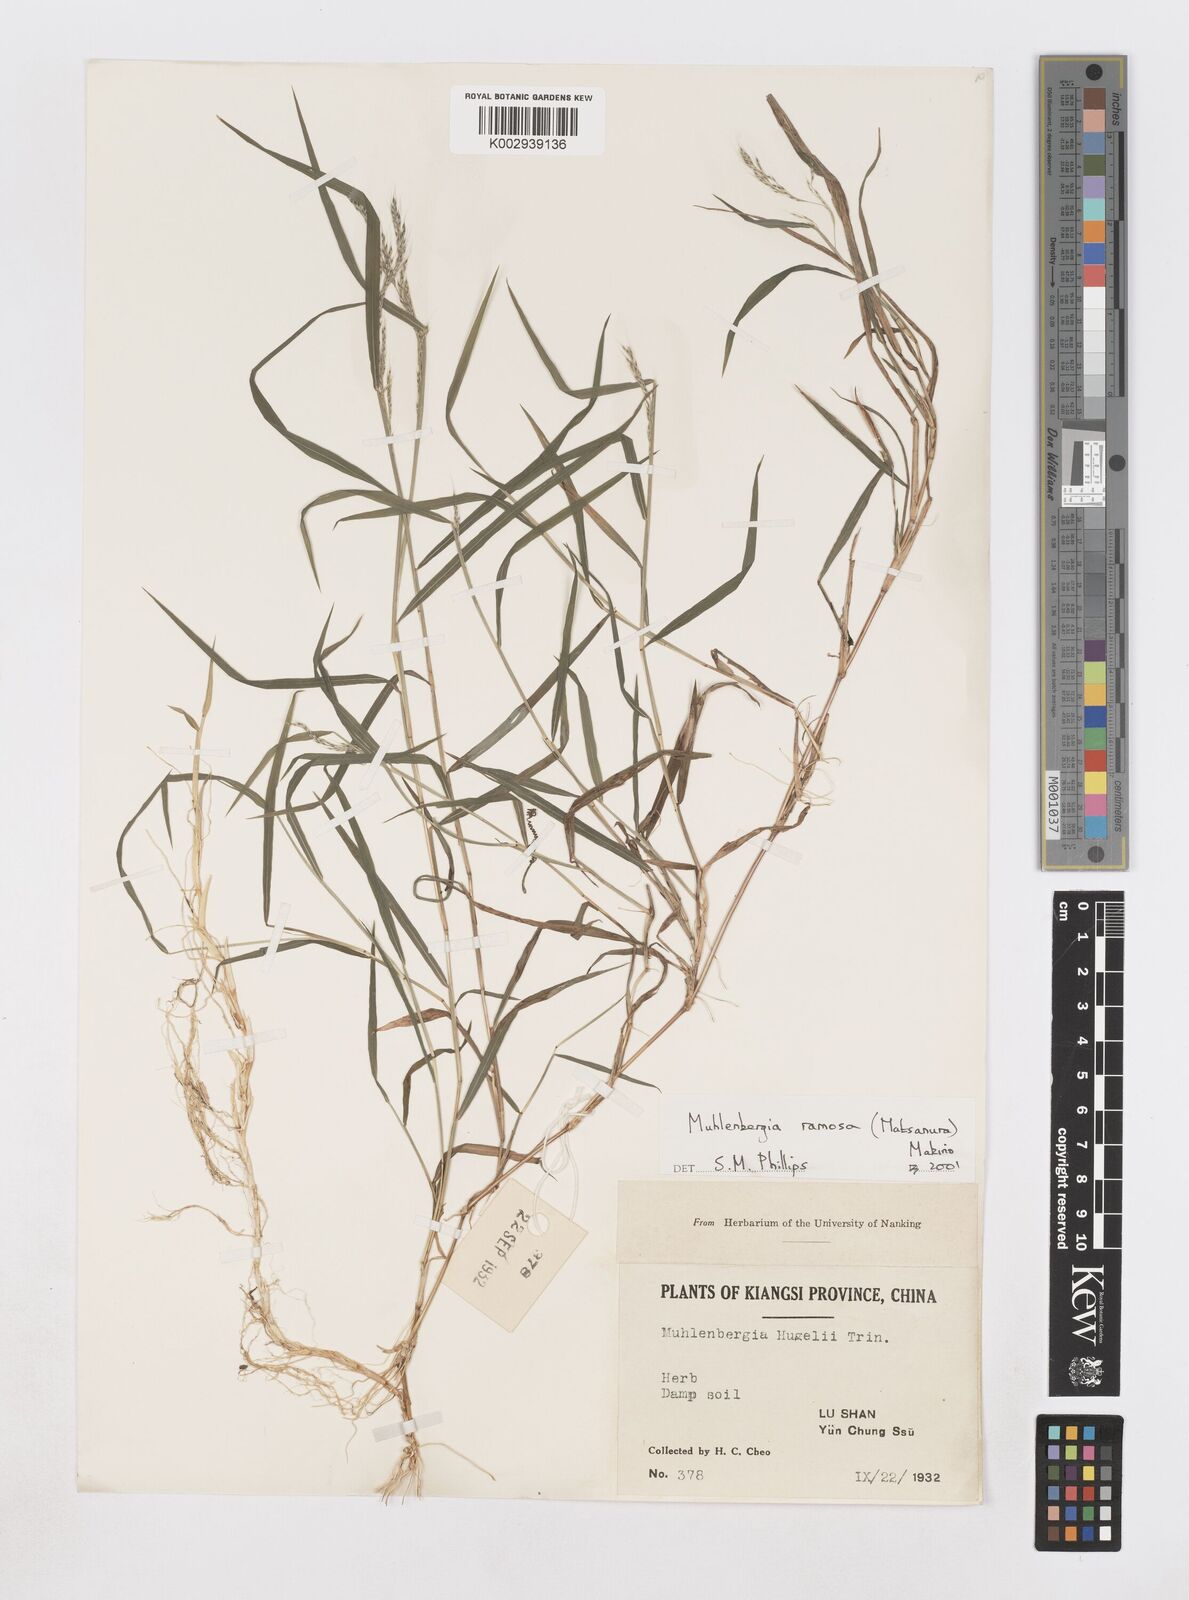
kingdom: Plantae
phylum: Tracheophyta
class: Liliopsida
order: Poales
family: Poaceae
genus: Muhlenbergia
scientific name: Muhlenbergia ramosa
